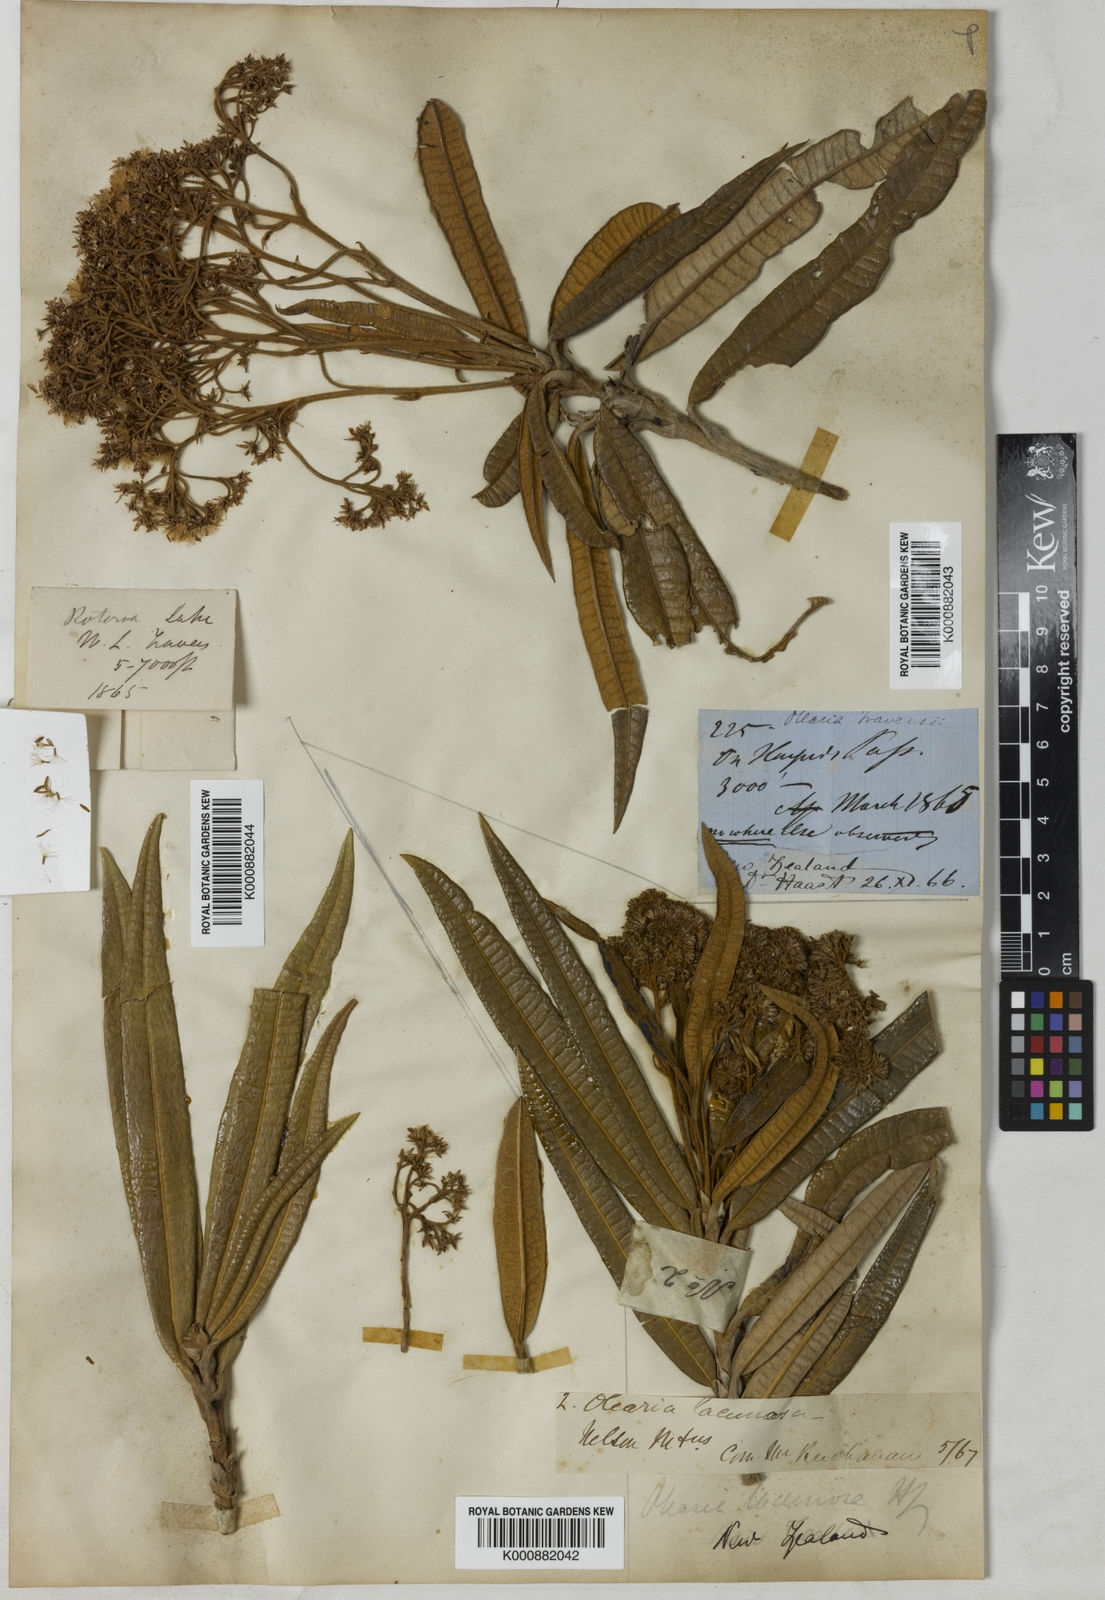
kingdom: Plantae
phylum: Tracheophyta
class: Magnoliopsida
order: Asterales
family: Asteraceae
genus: Olearia
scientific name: Olearia lacunosa
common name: Lancewood tree daisy
